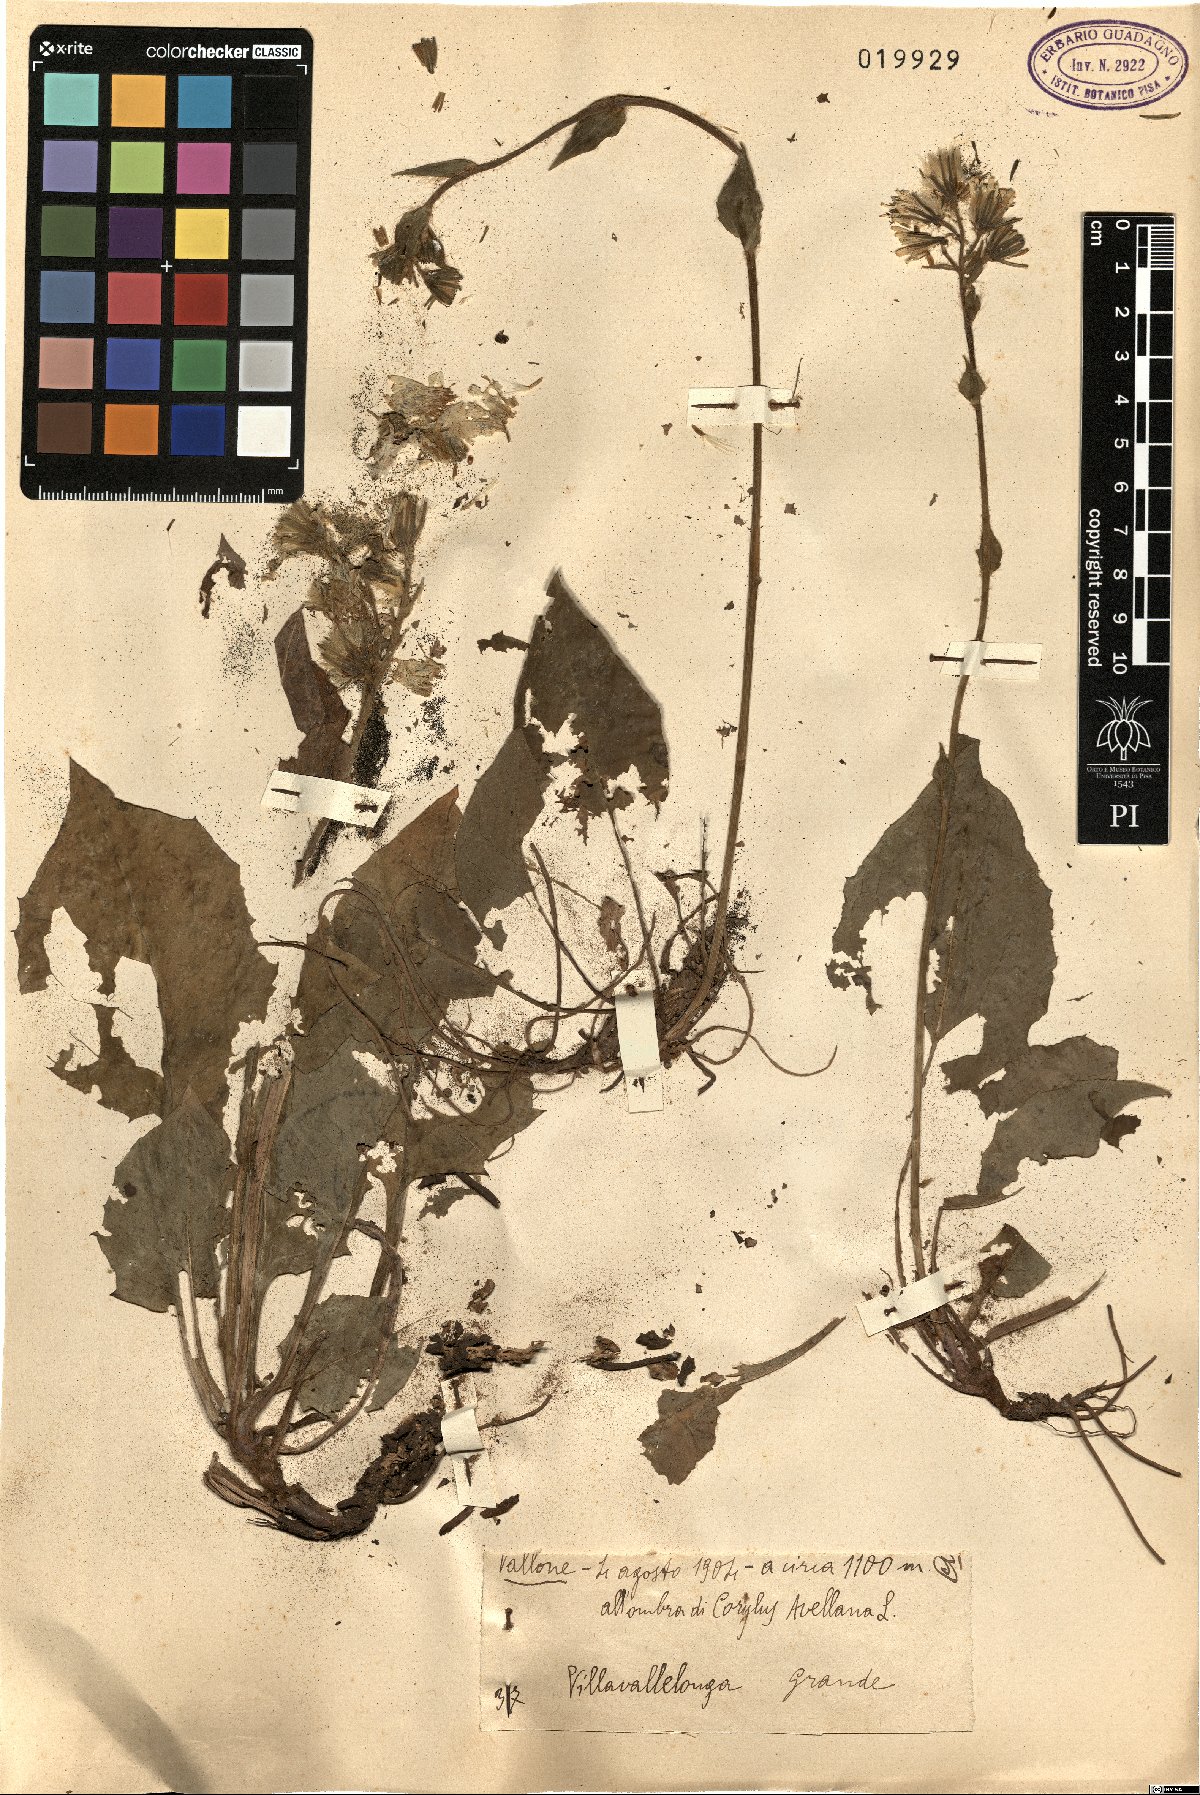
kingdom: Plantae
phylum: Tracheophyta
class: Magnoliopsida
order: Asterales
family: Asteraceae
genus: Hieracium
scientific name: Hieracium
